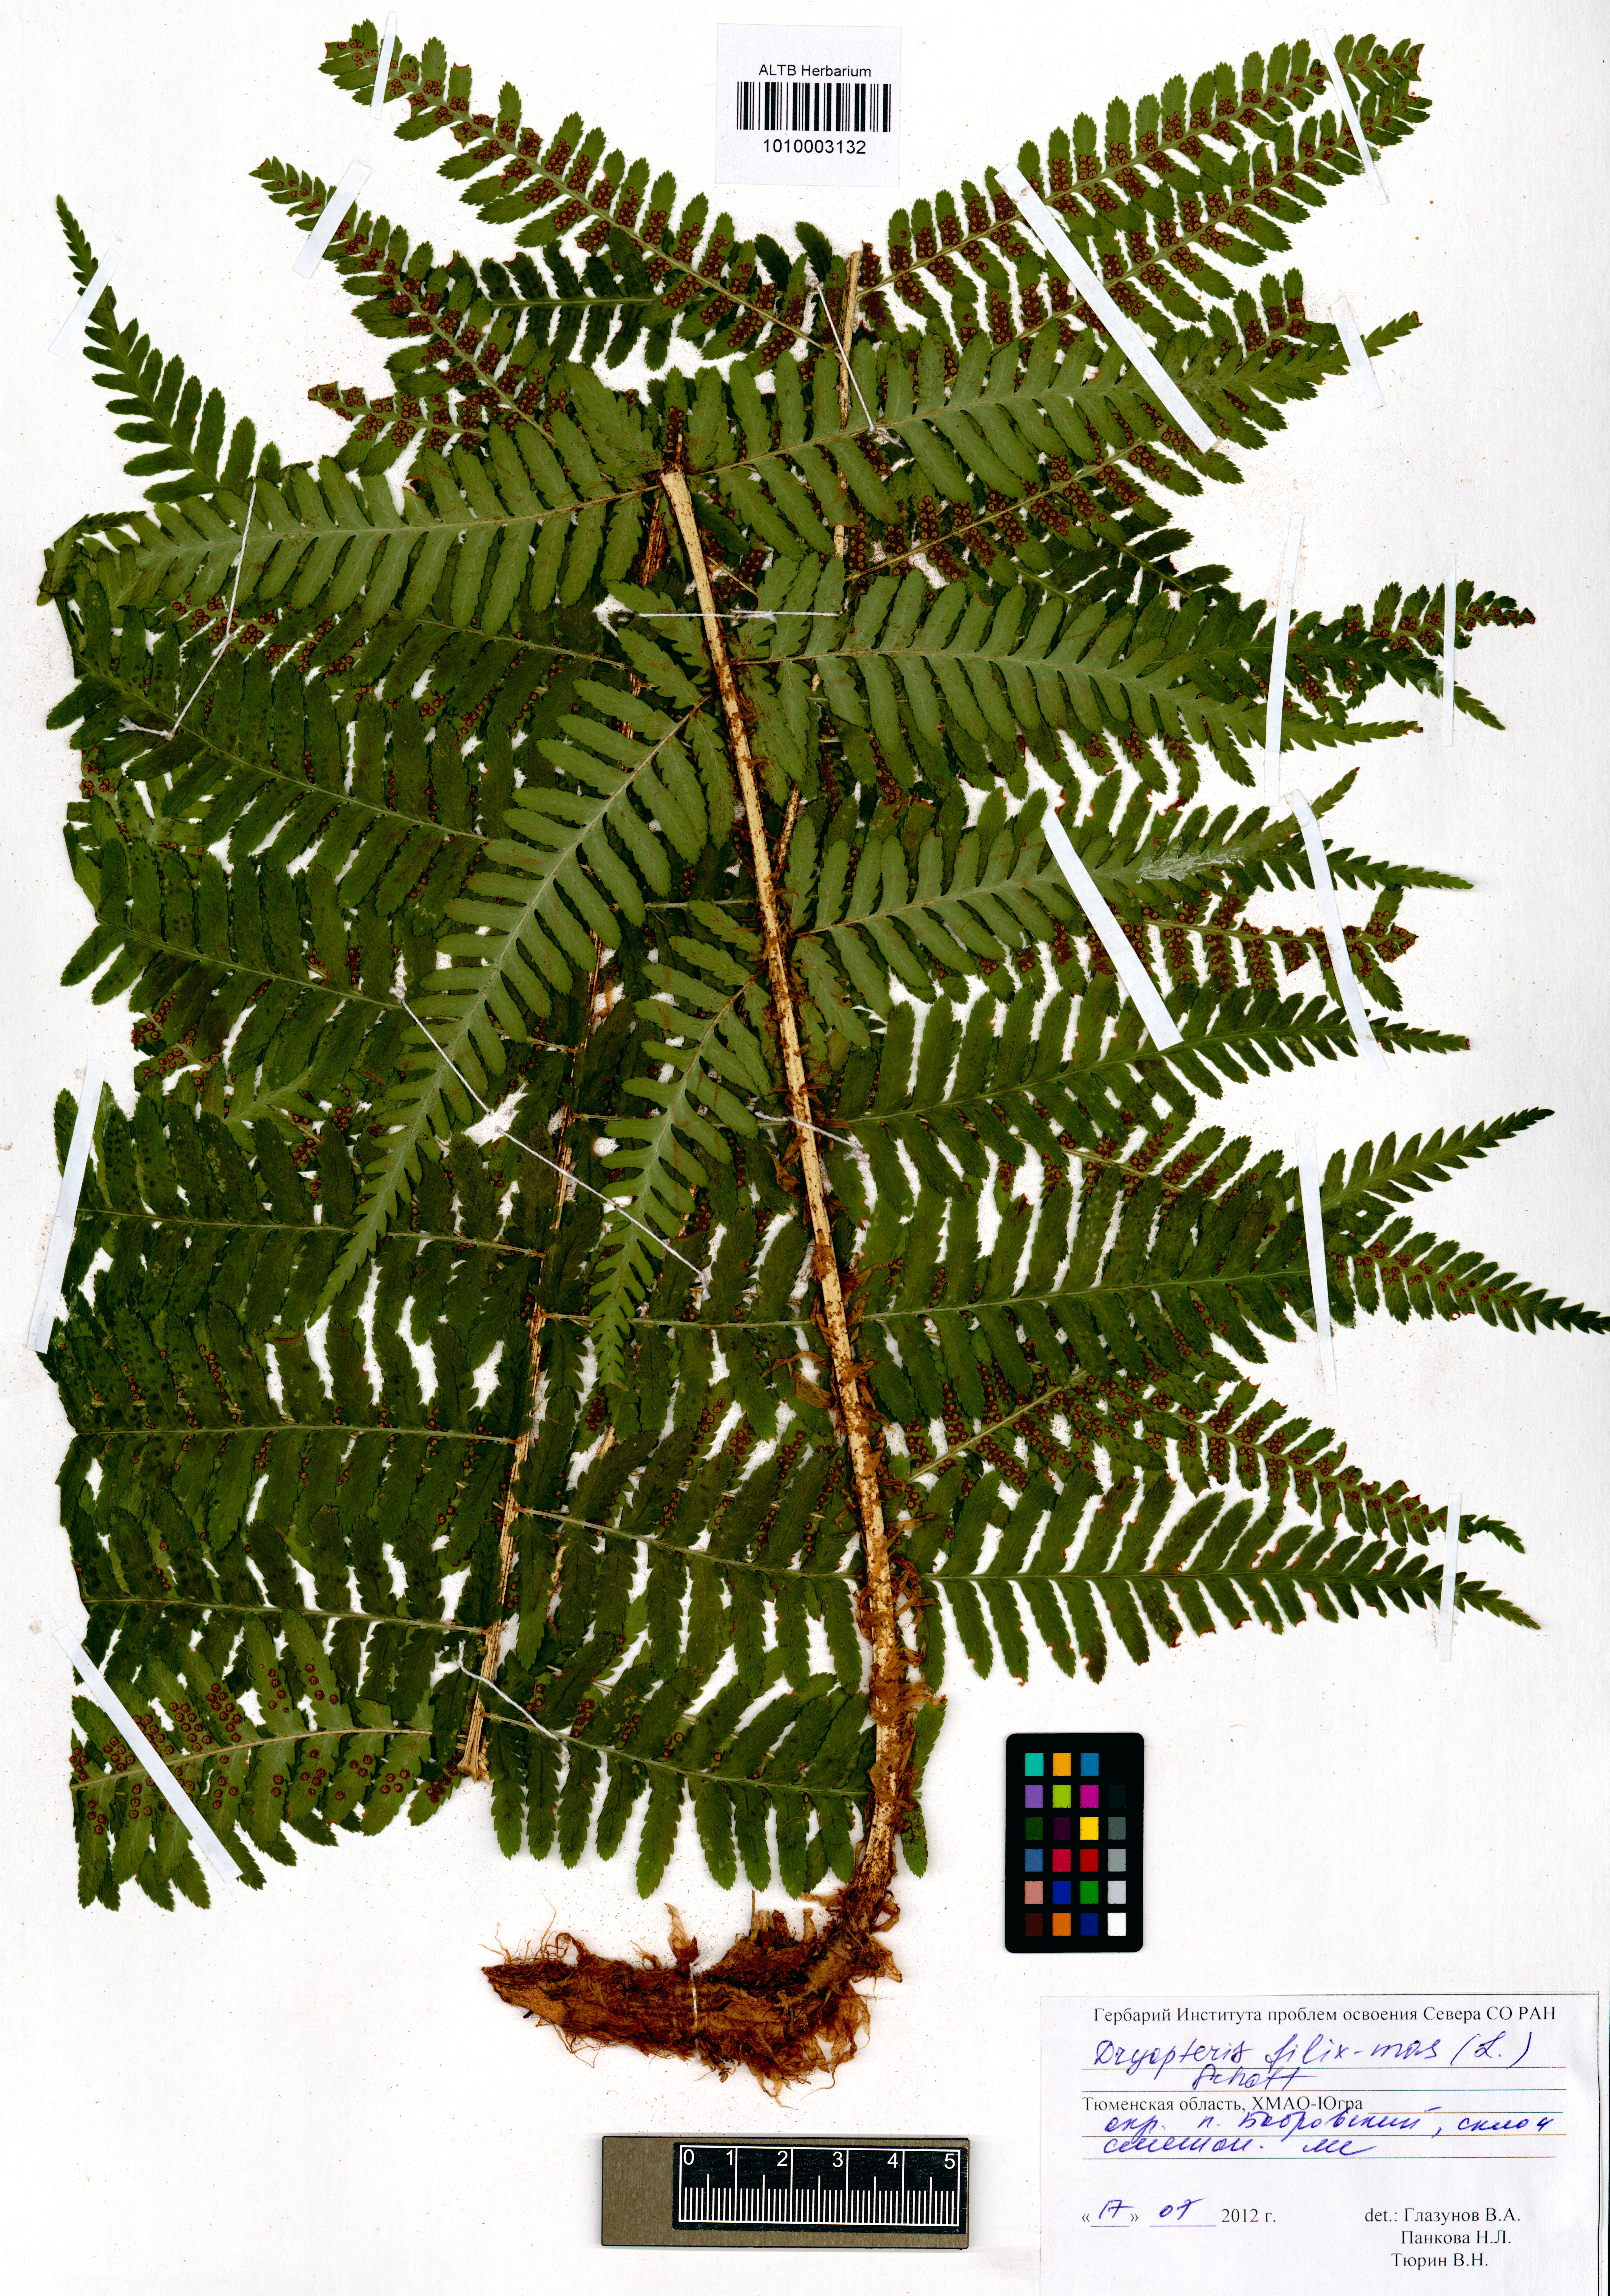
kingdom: Plantae
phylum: Tracheophyta
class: Polypodiopsida
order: Polypodiales
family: Dryopteridaceae
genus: Dryopteris
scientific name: Dryopteris filix-mas
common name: Male fern
